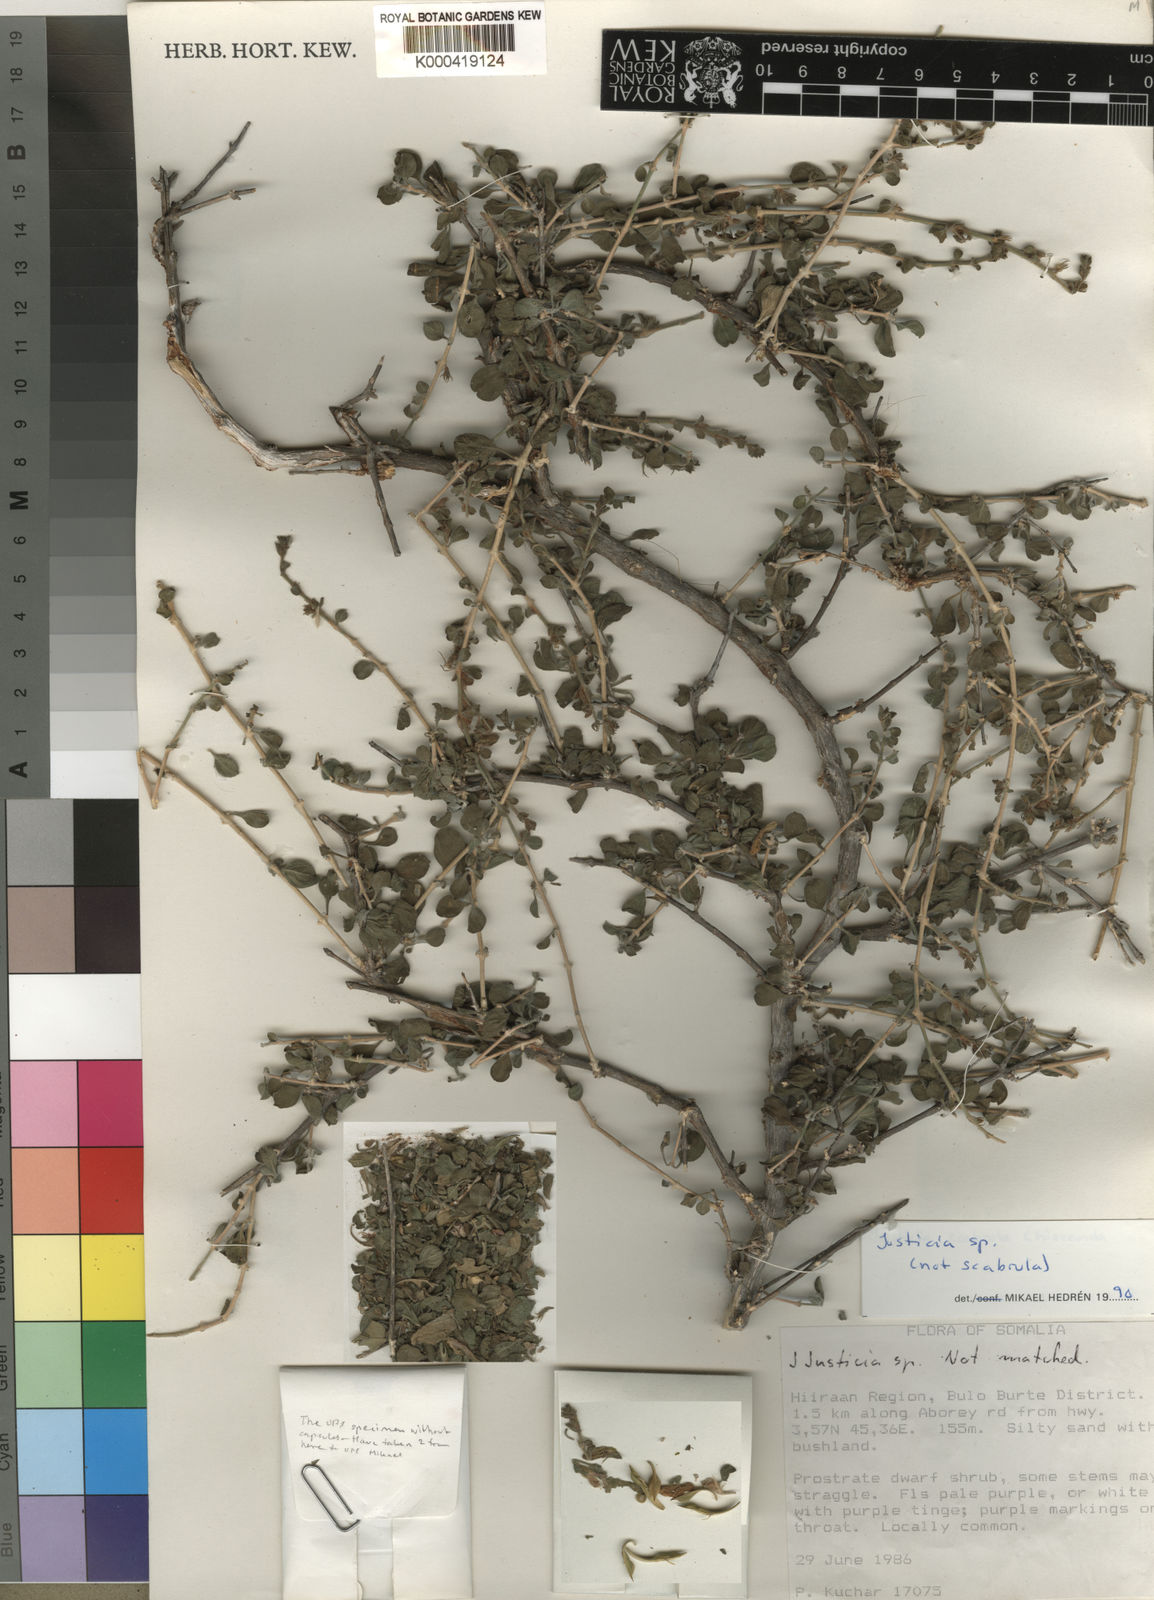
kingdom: Plantae
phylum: Tracheophyta
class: Magnoliopsida
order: Lamiales
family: Acanthaceae
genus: Justicia
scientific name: Justicia
